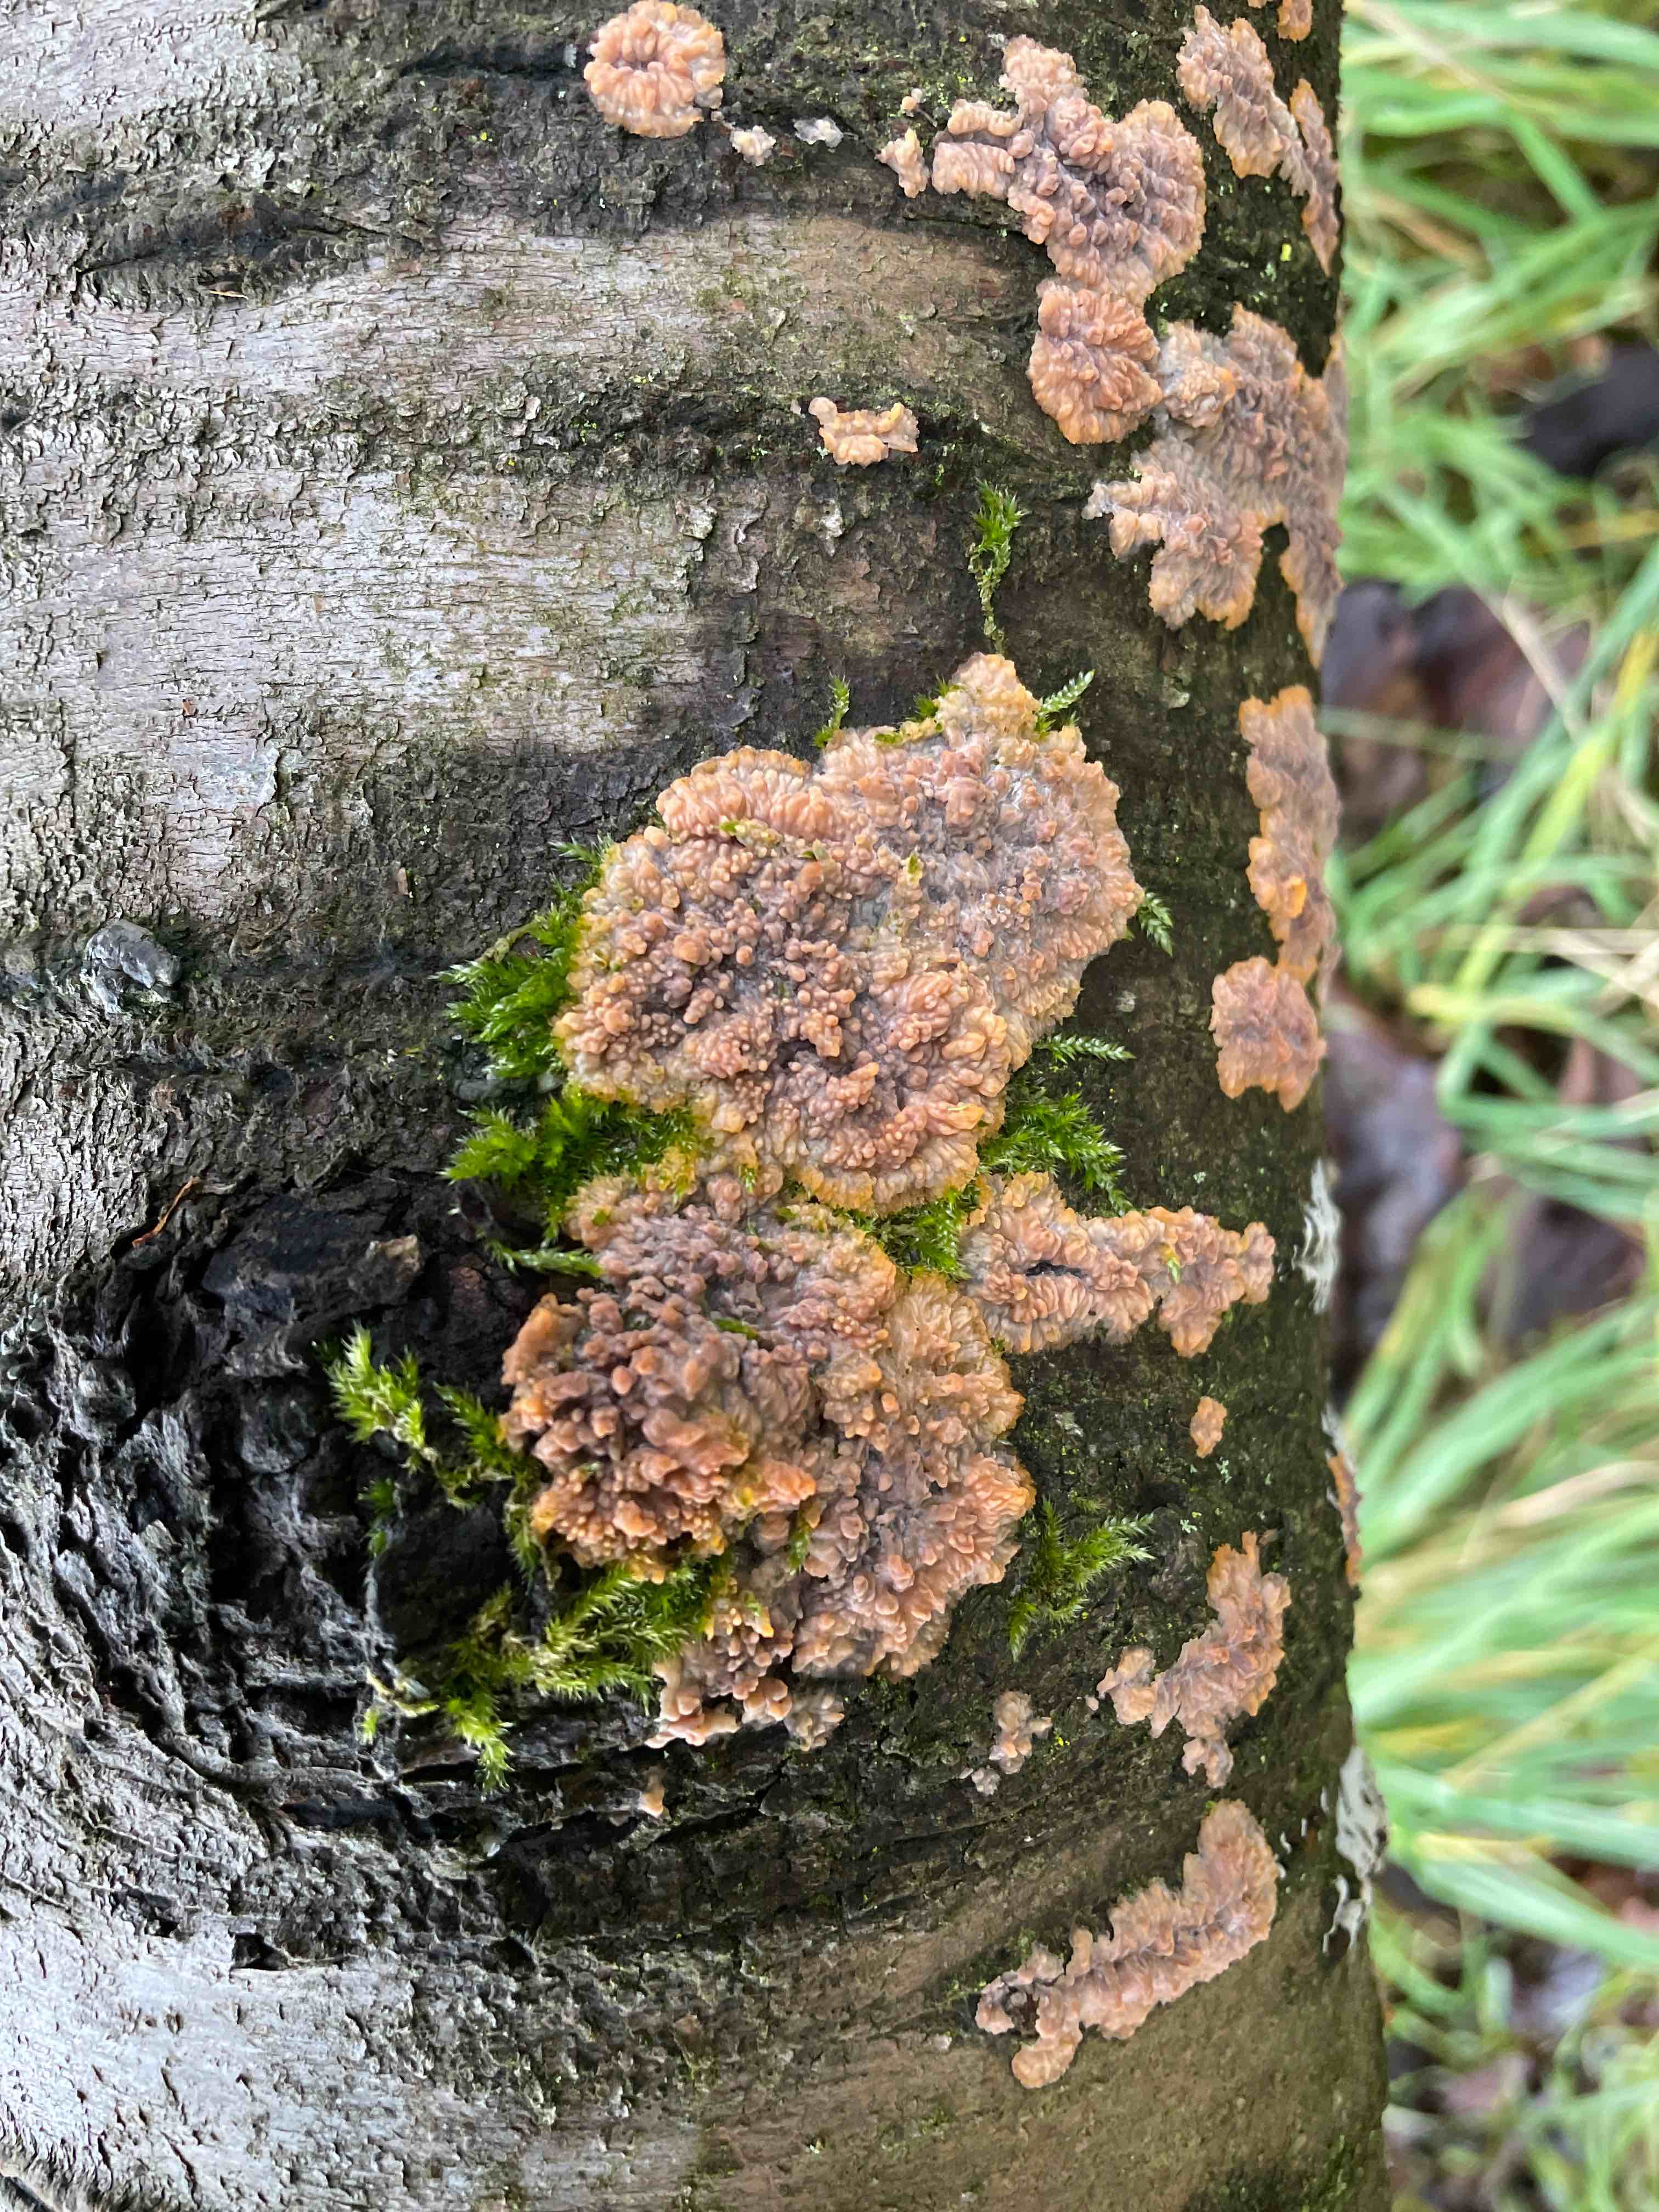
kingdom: Fungi
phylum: Basidiomycota
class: Agaricomycetes
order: Polyporales
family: Meruliaceae
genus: Phlebia
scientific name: Phlebia radiata
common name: stråle-åresvamp
